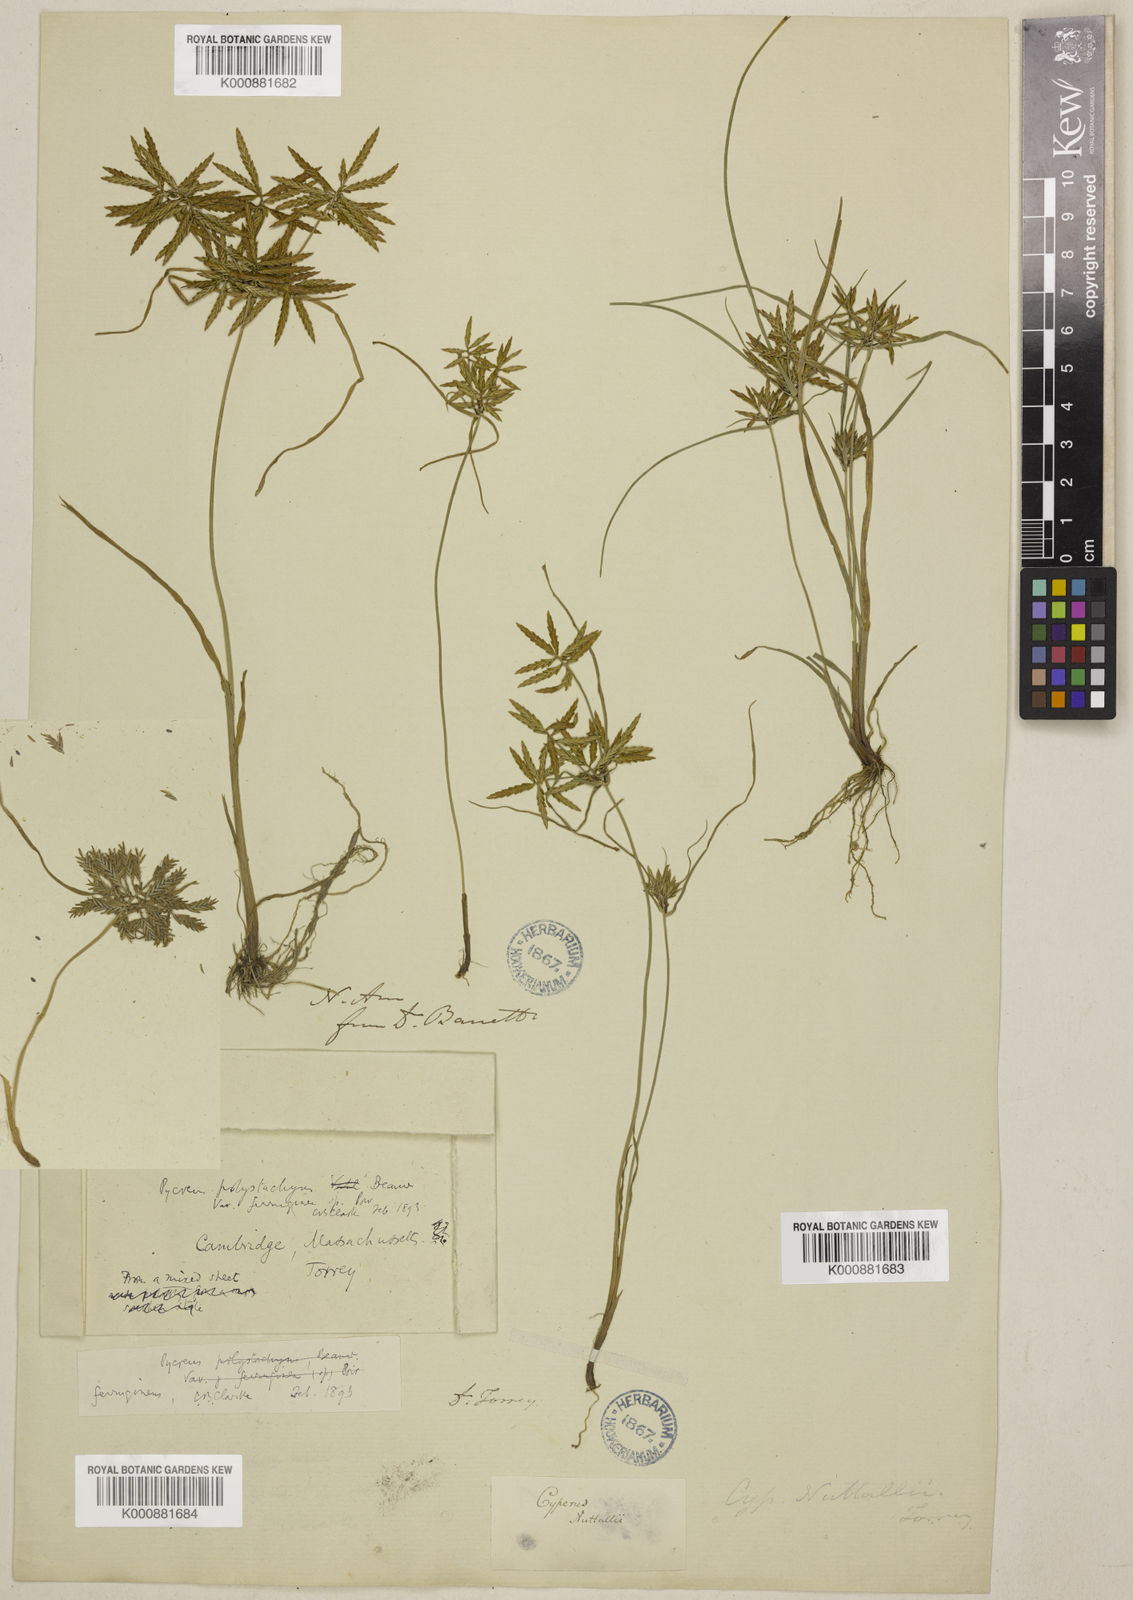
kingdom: Plantae
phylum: Tracheophyta
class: Liliopsida
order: Poales
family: Cyperaceae
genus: Cyperus
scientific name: Cyperus filicinus
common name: Fern flatsedge
